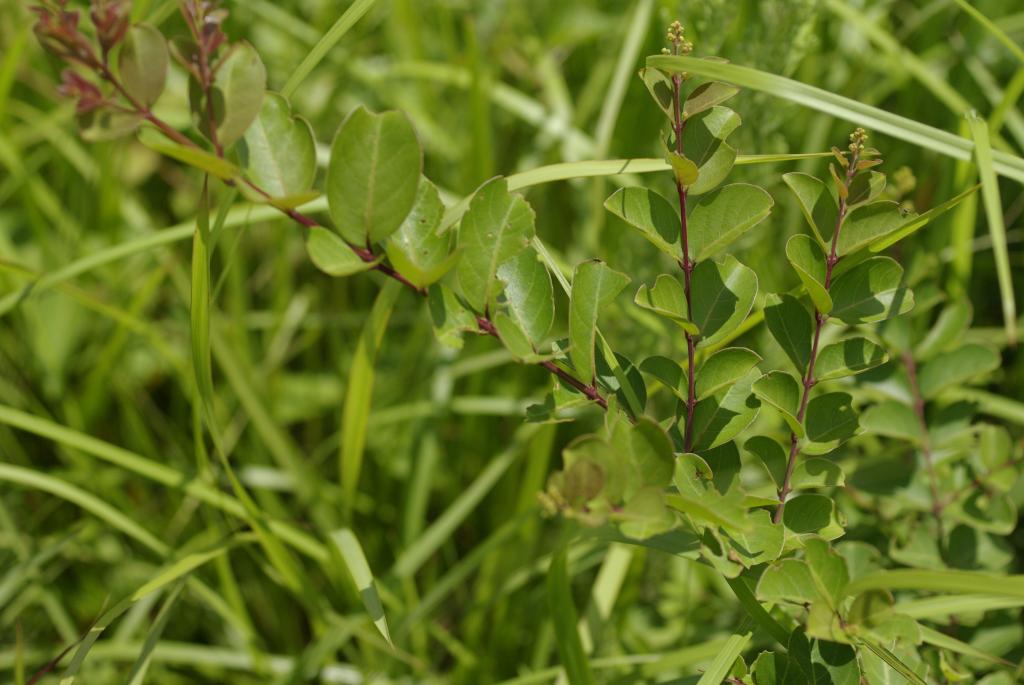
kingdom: Plantae
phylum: Tracheophyta
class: Magnoliopsida
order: Myrtales
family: Lythraceae
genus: Lagerstroemia
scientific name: Lagerstroemia subcostata
